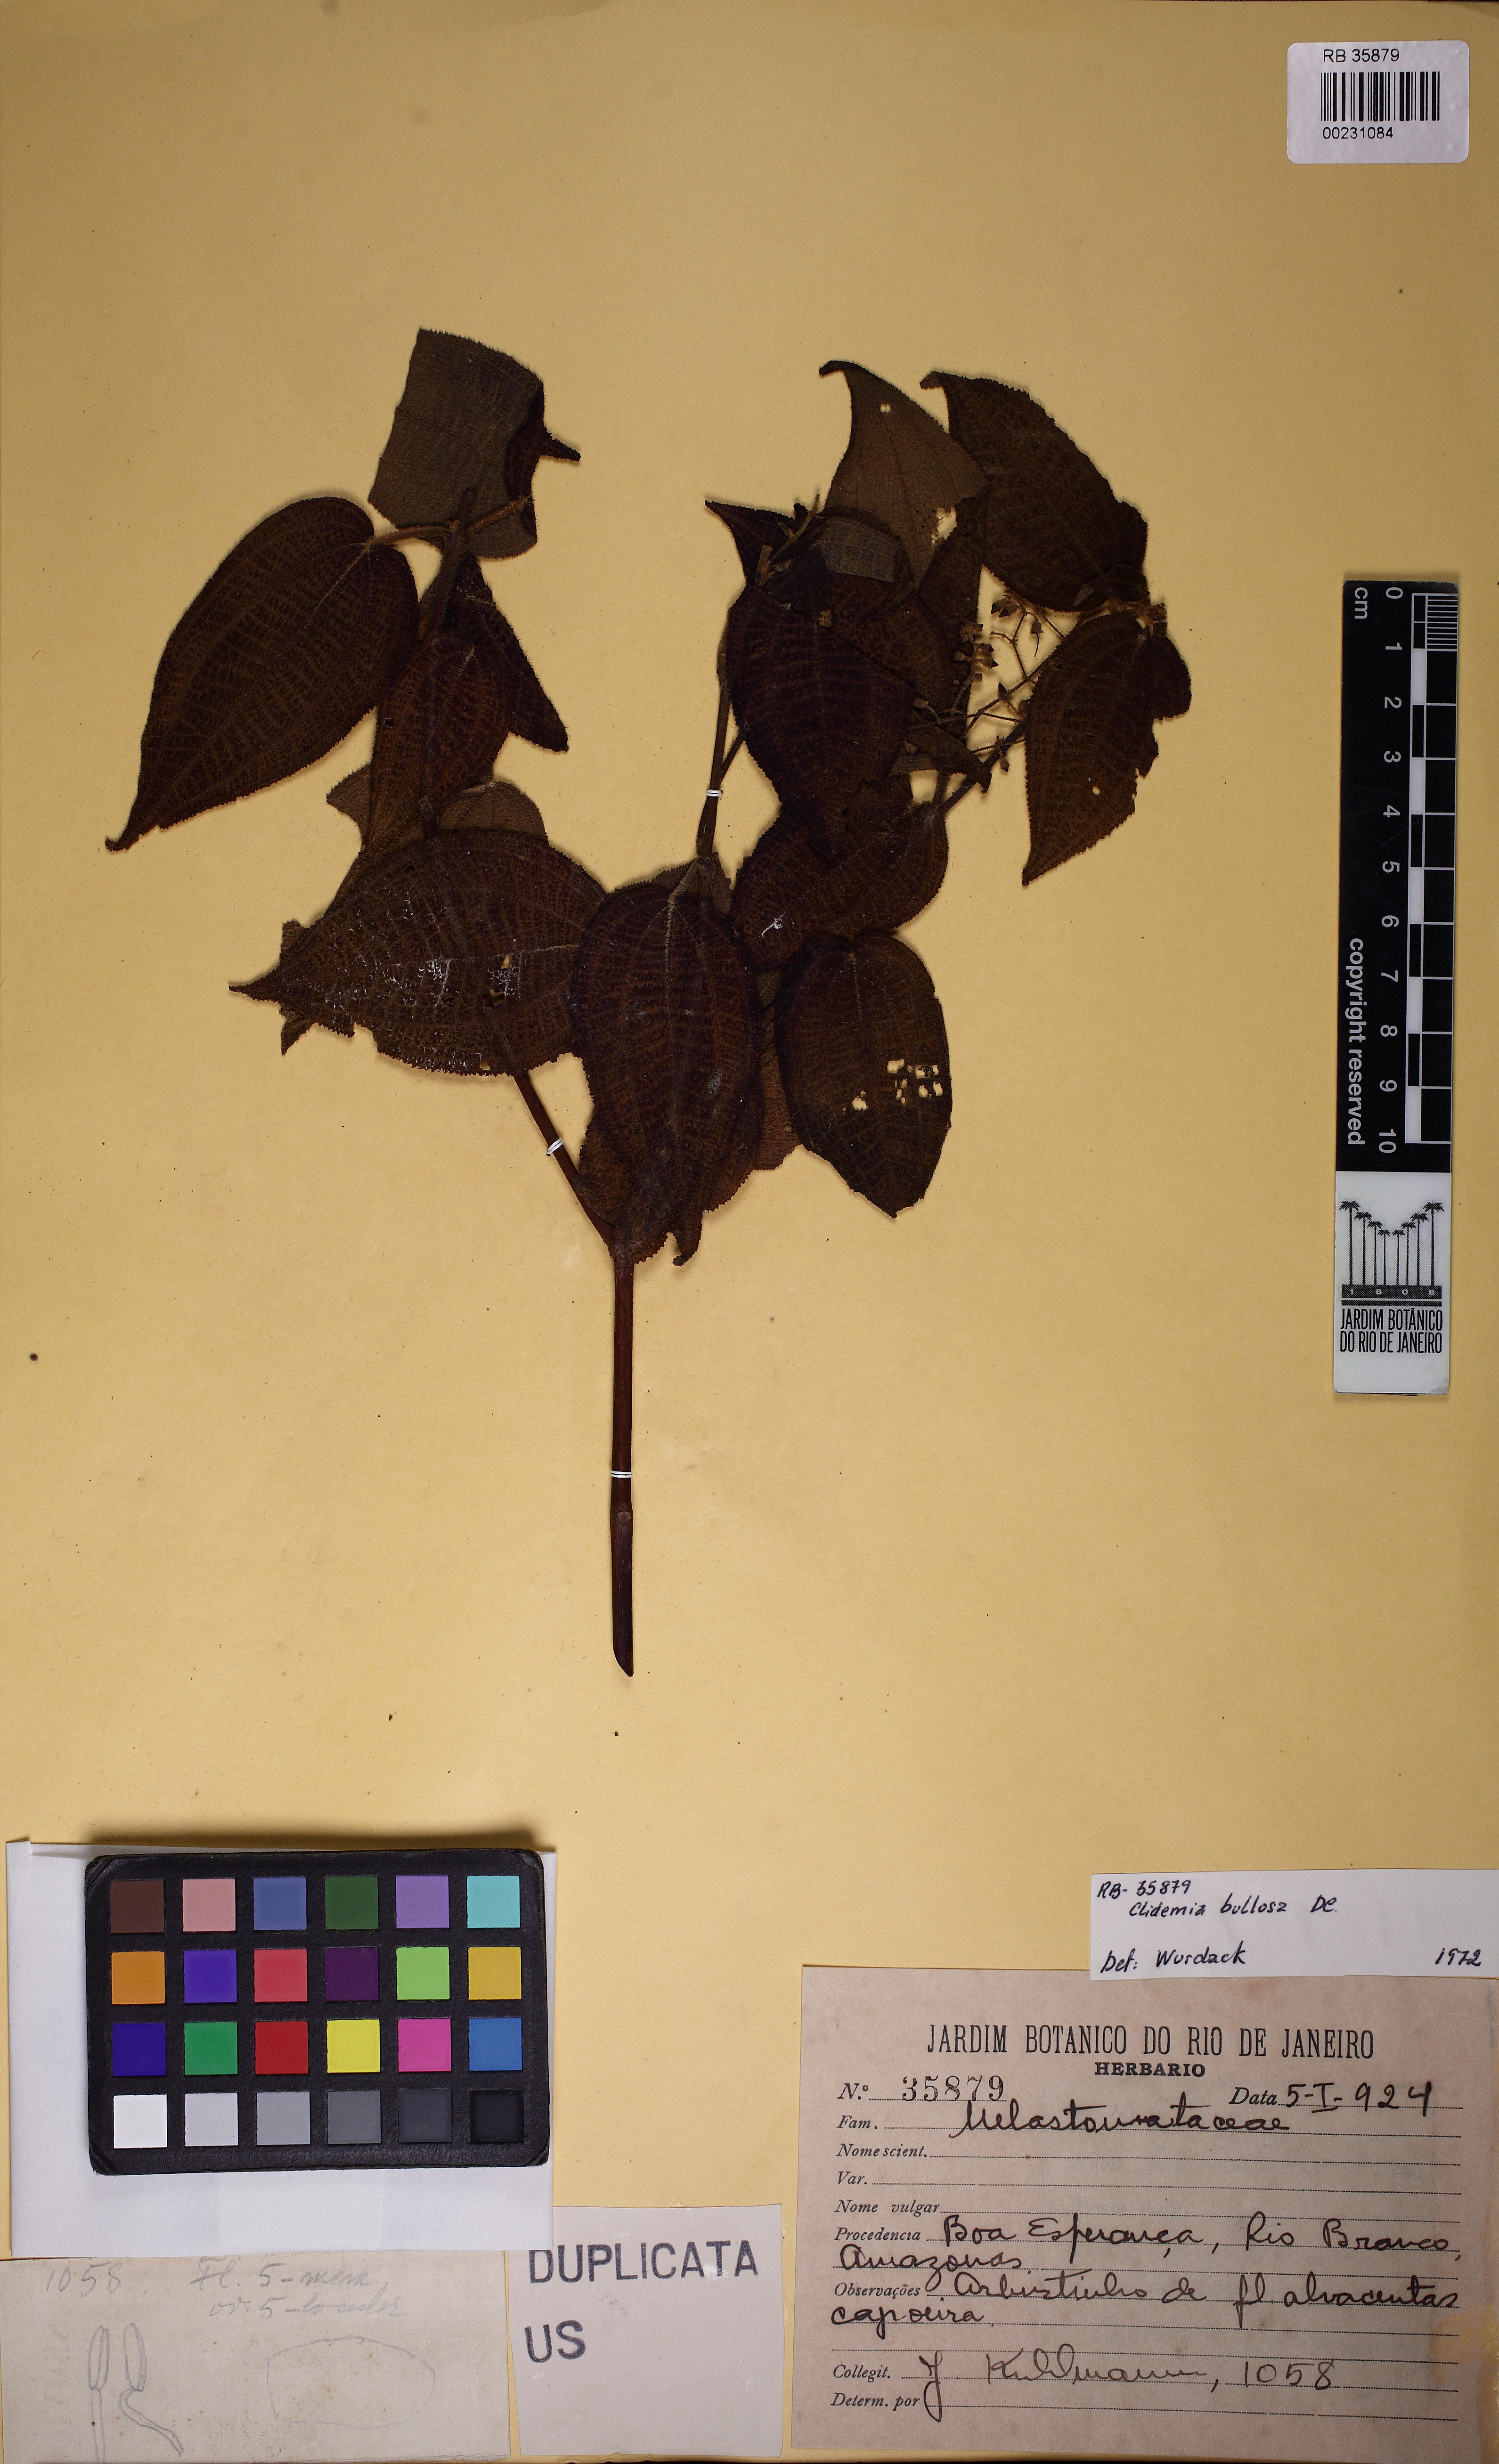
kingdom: Plantae
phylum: Tracheophyta
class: Magnoliopsida
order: Myrtales
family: Melastomataceae
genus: Miconia
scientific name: Miconia bullosa
